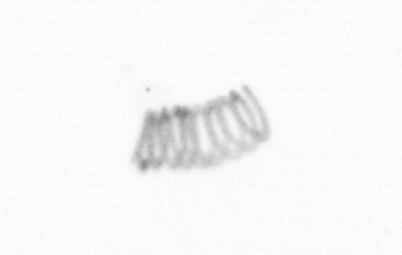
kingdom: Chromista
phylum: Ochrophyta
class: Bacillariophyceae
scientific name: Bacillariophyceae
